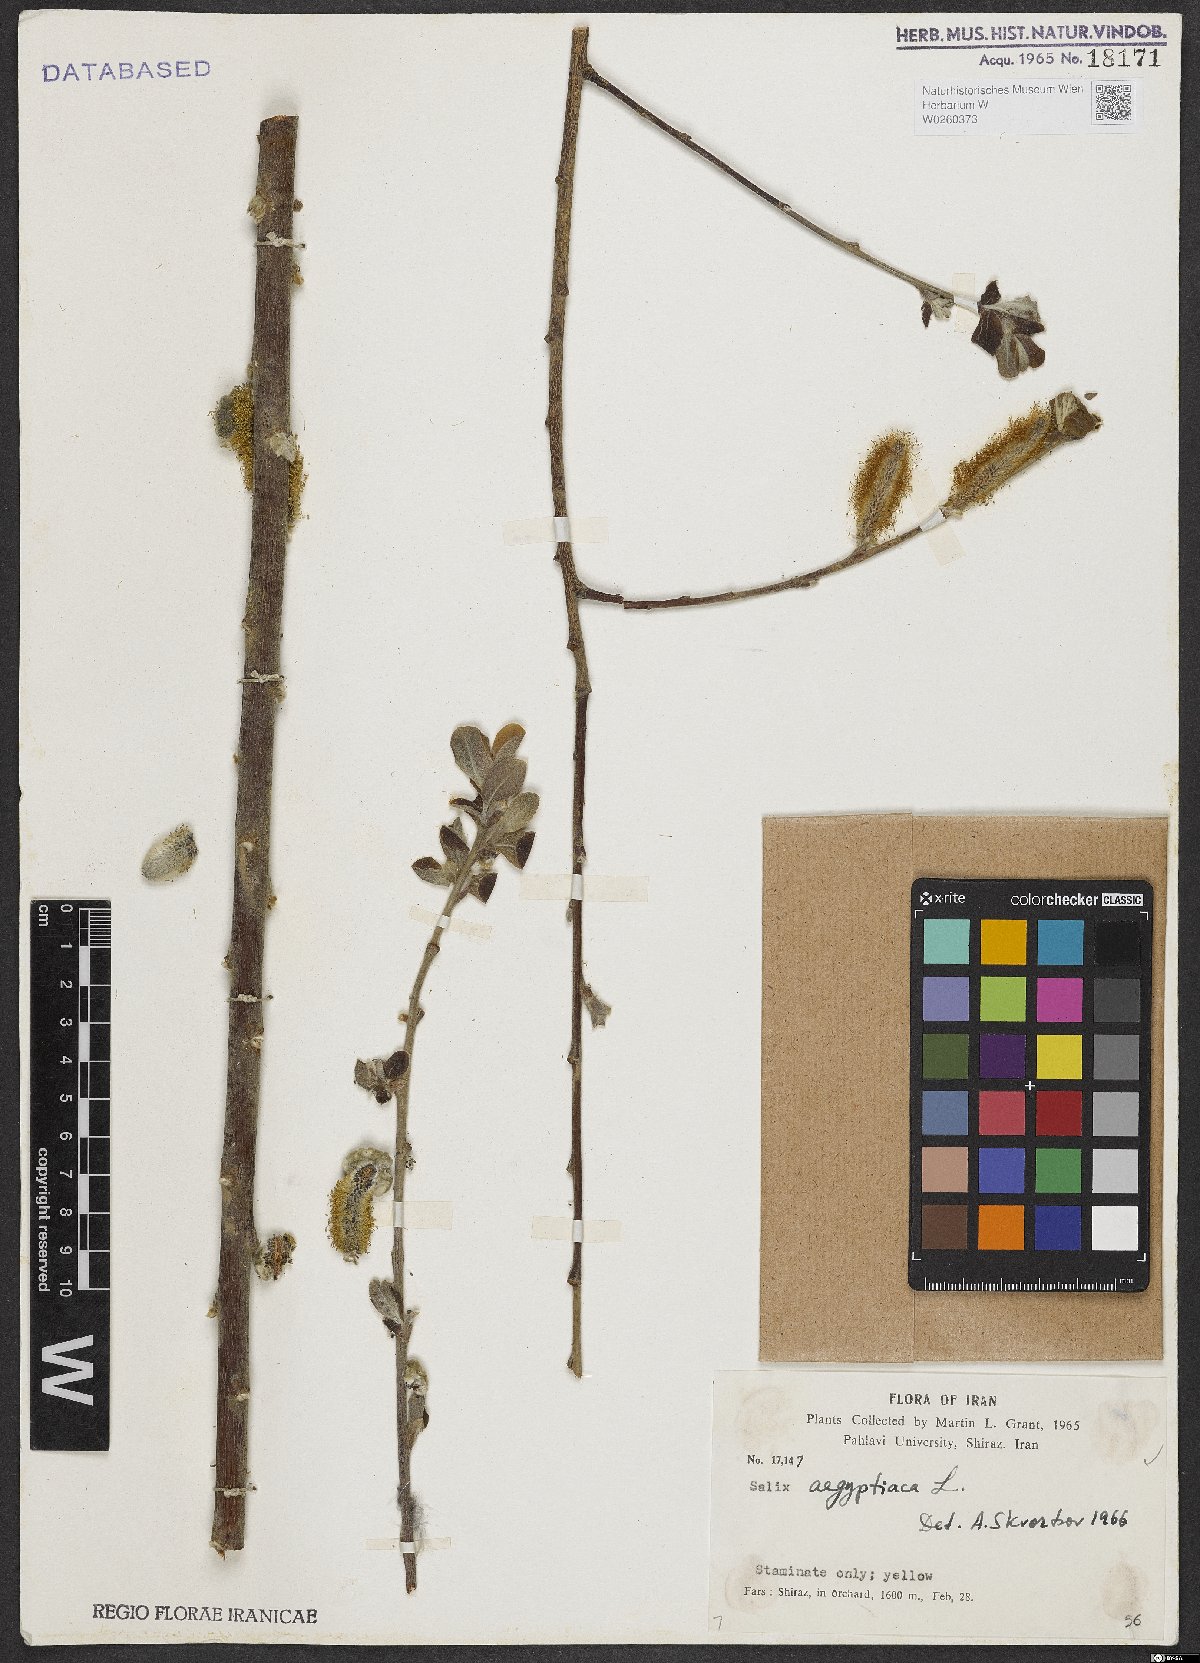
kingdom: Plantae
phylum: Tracheophyta
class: Magnoliopsida
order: Malpighiales
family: Salicaceae
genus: Salix
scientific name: Salix aegyptiaca
